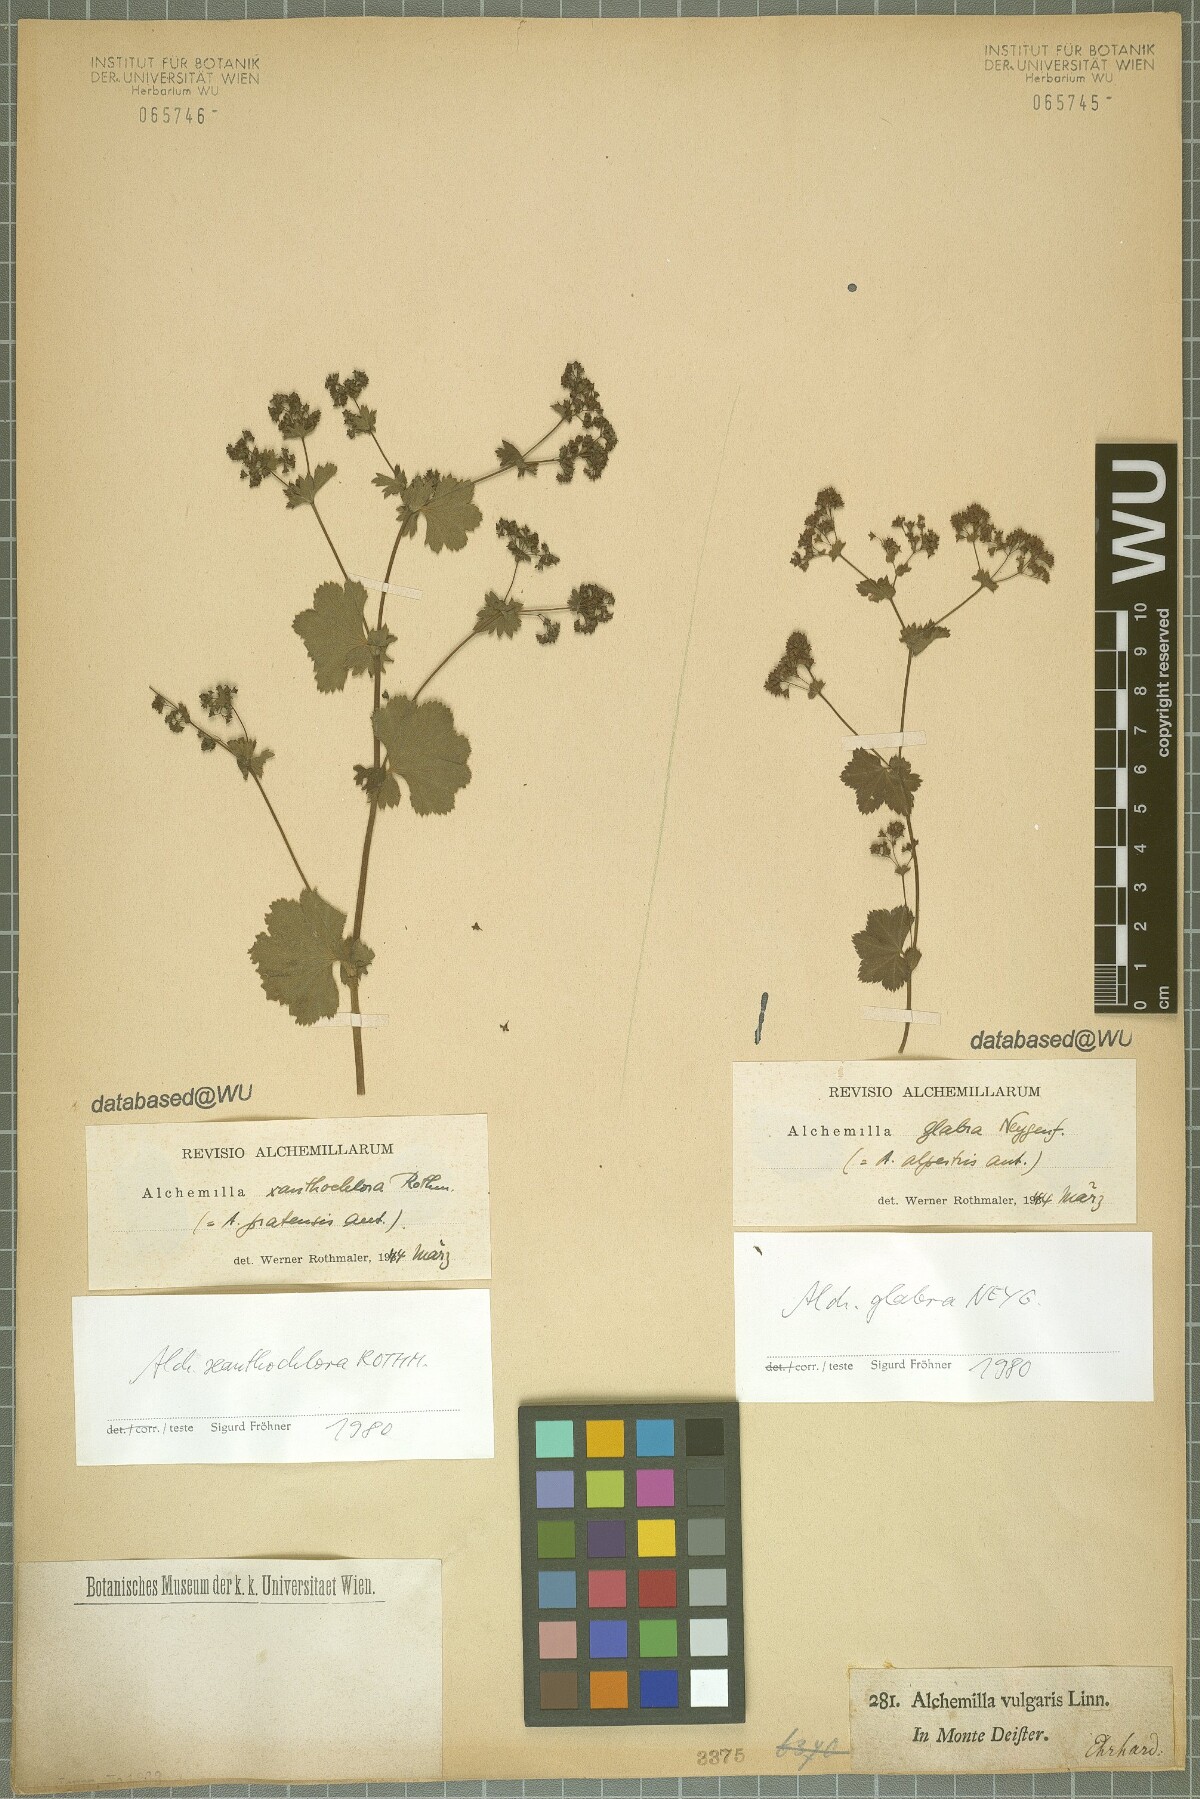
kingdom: Plantae
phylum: Tracheophyta
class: Magnoliopsida
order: Rosales
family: Rosaceae
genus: Alchemilla
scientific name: Alchemilla xanthochlora
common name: Intermediate lady's-mantle
